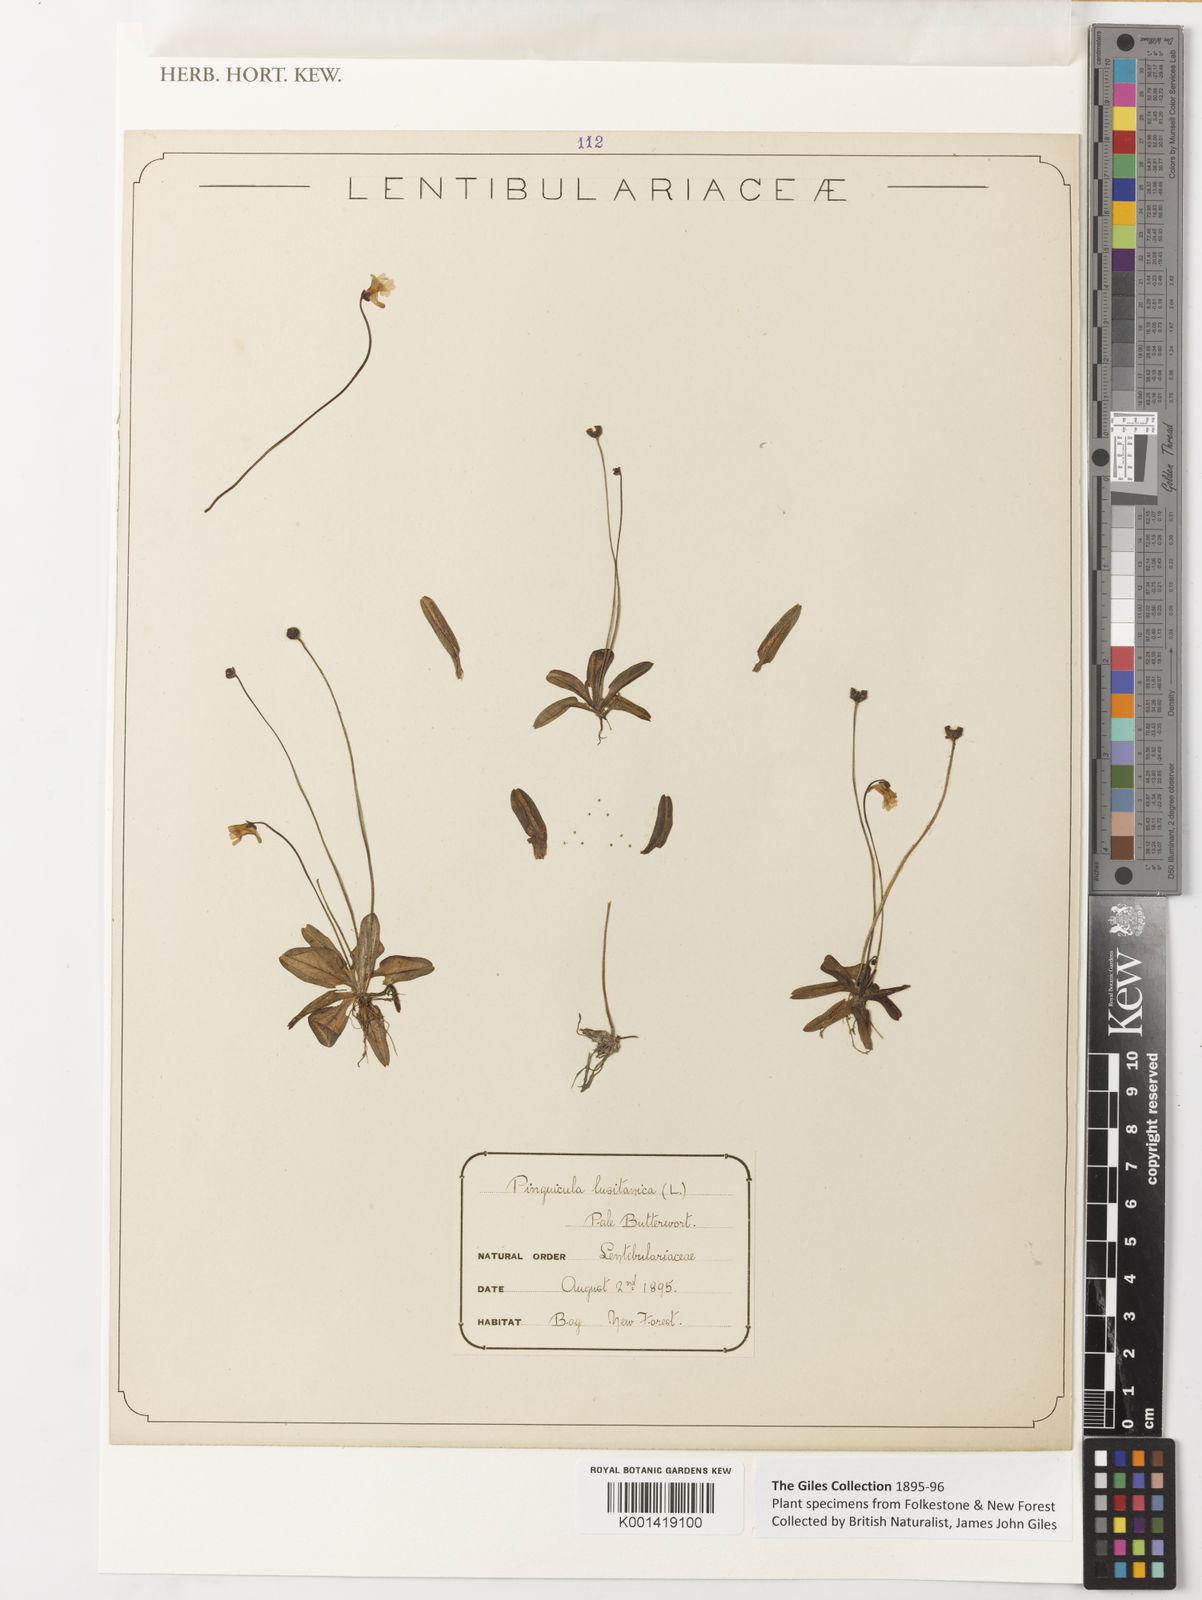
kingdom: Plantae
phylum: Tracheophyta
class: Magnoliopsida
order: Lamiales
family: Lentibulariaceae
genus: Pinguicula
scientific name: Pinguicula lusitanica
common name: Pale butterwort
